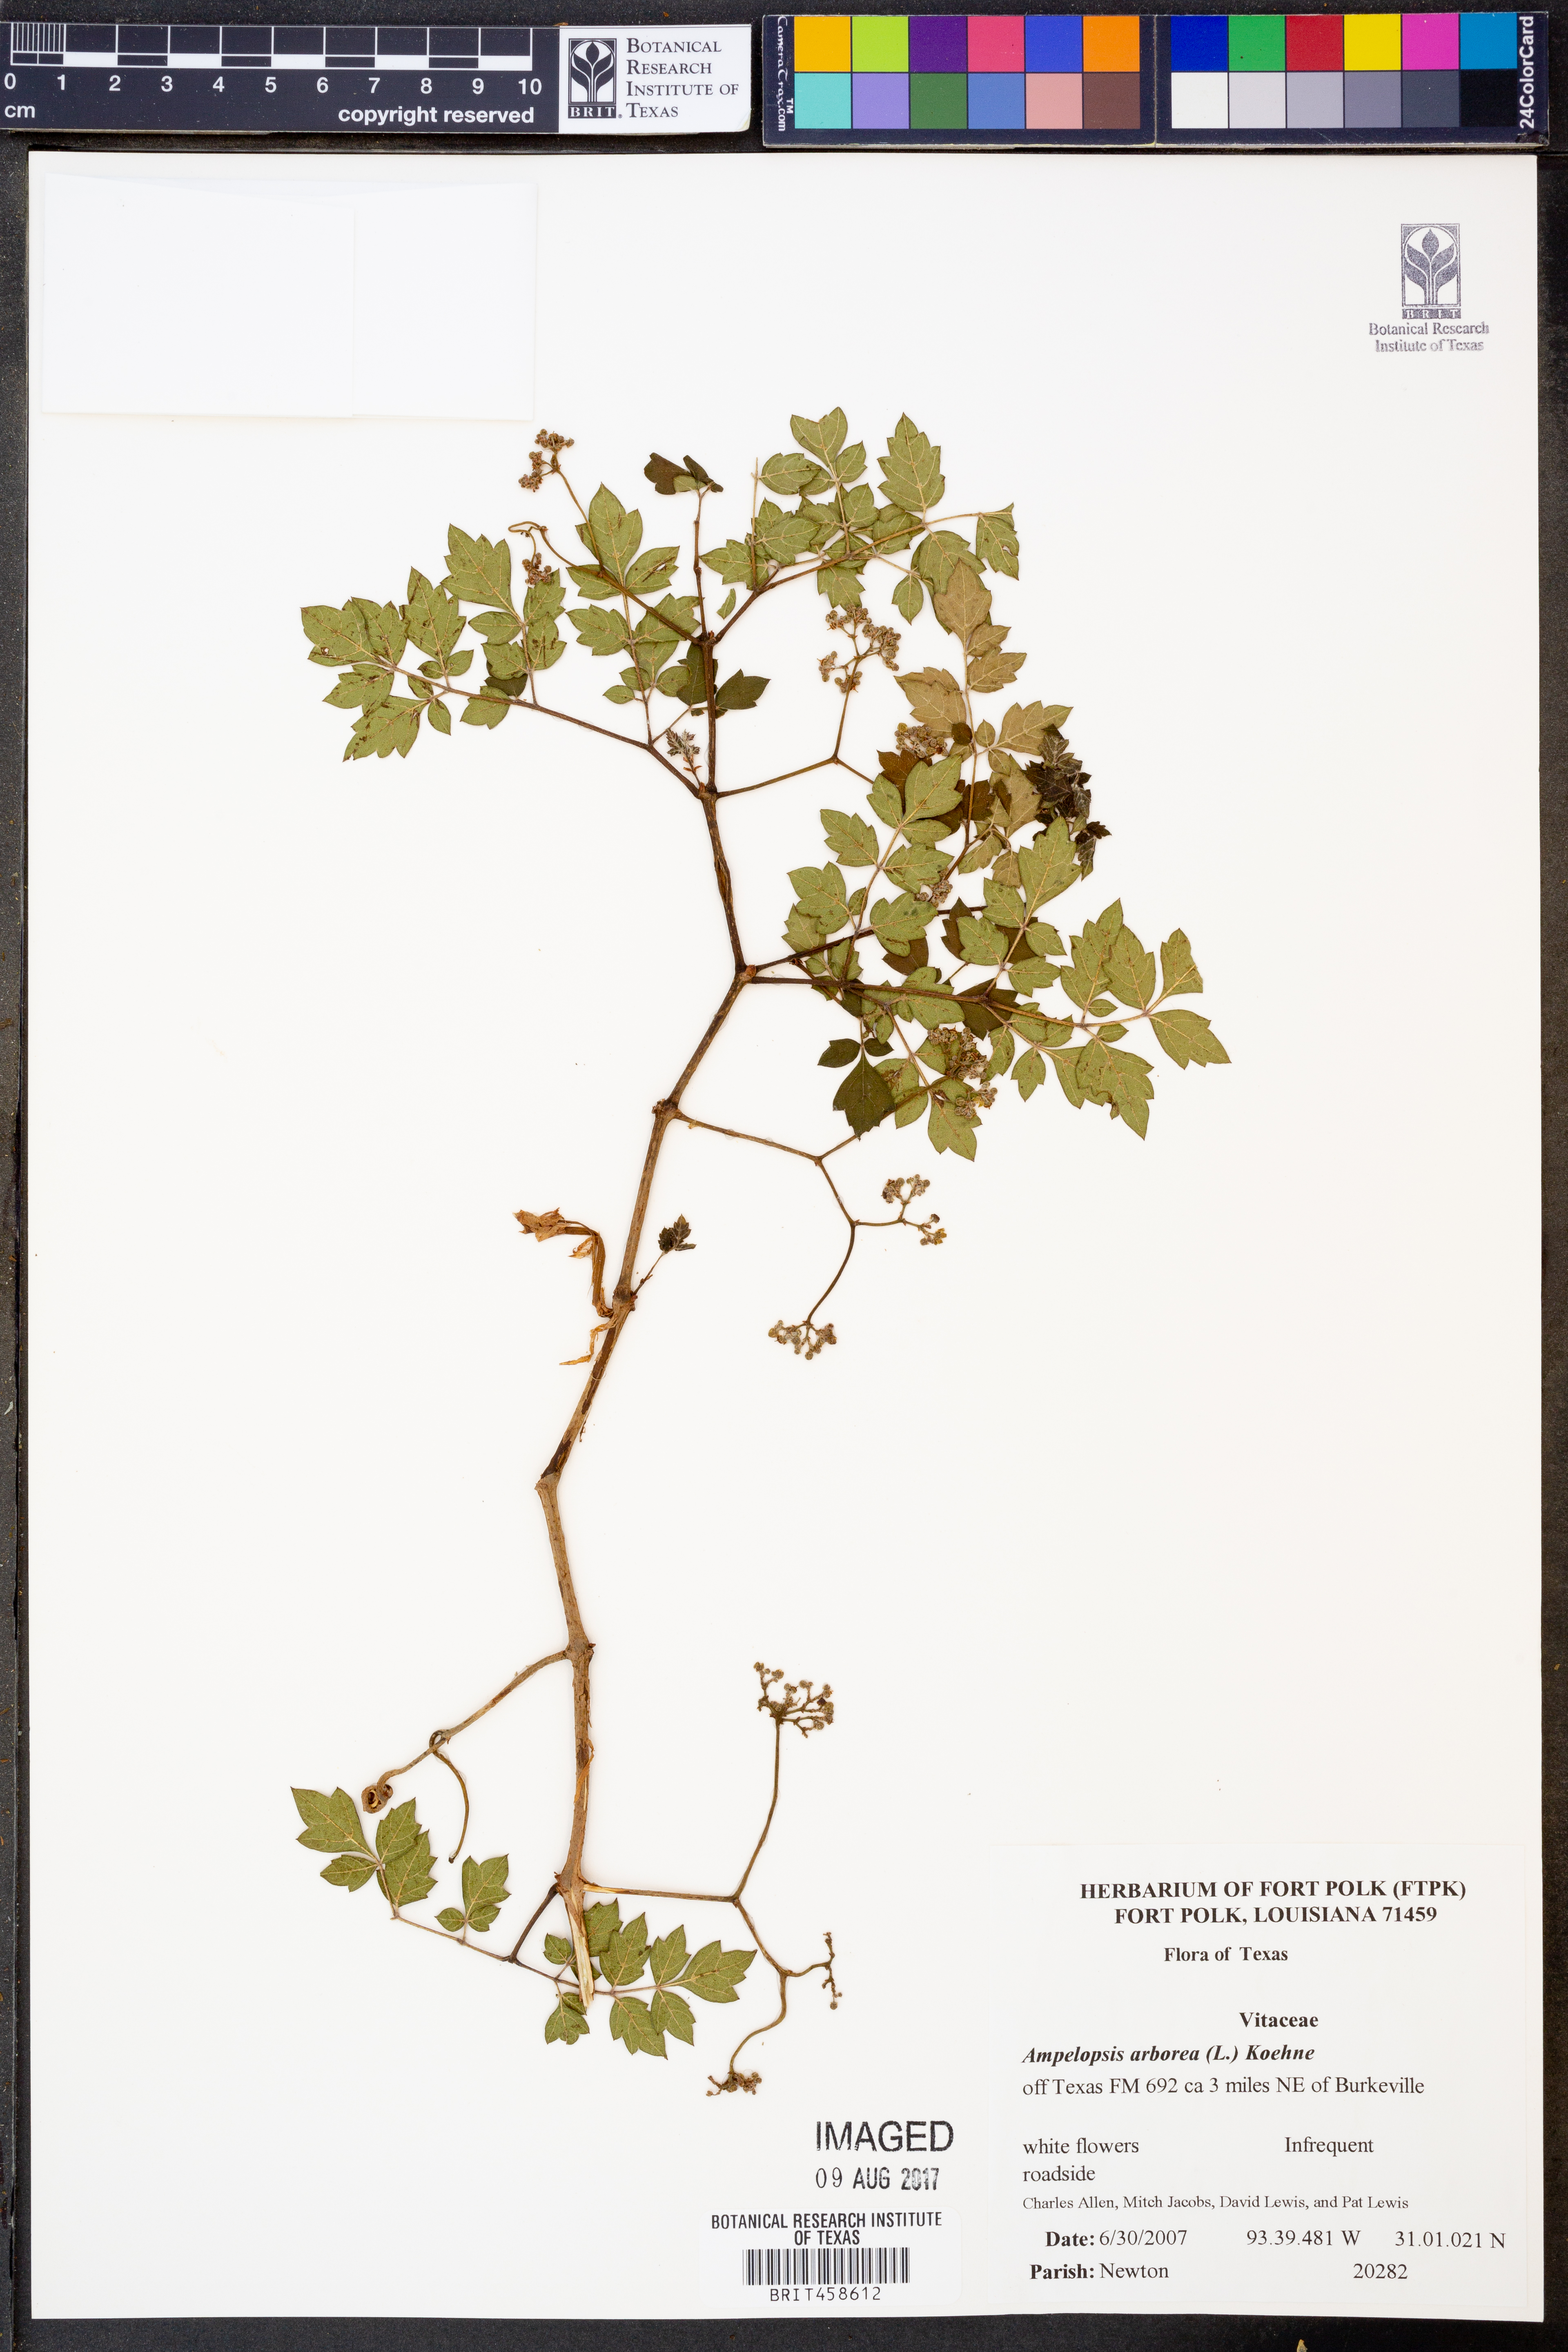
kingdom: Plantae
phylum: Tracheophyta
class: Magnoliopsida
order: Vitales
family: Vitaceae
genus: Nekemias
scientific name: Nekemias arborea
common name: Peppervine
